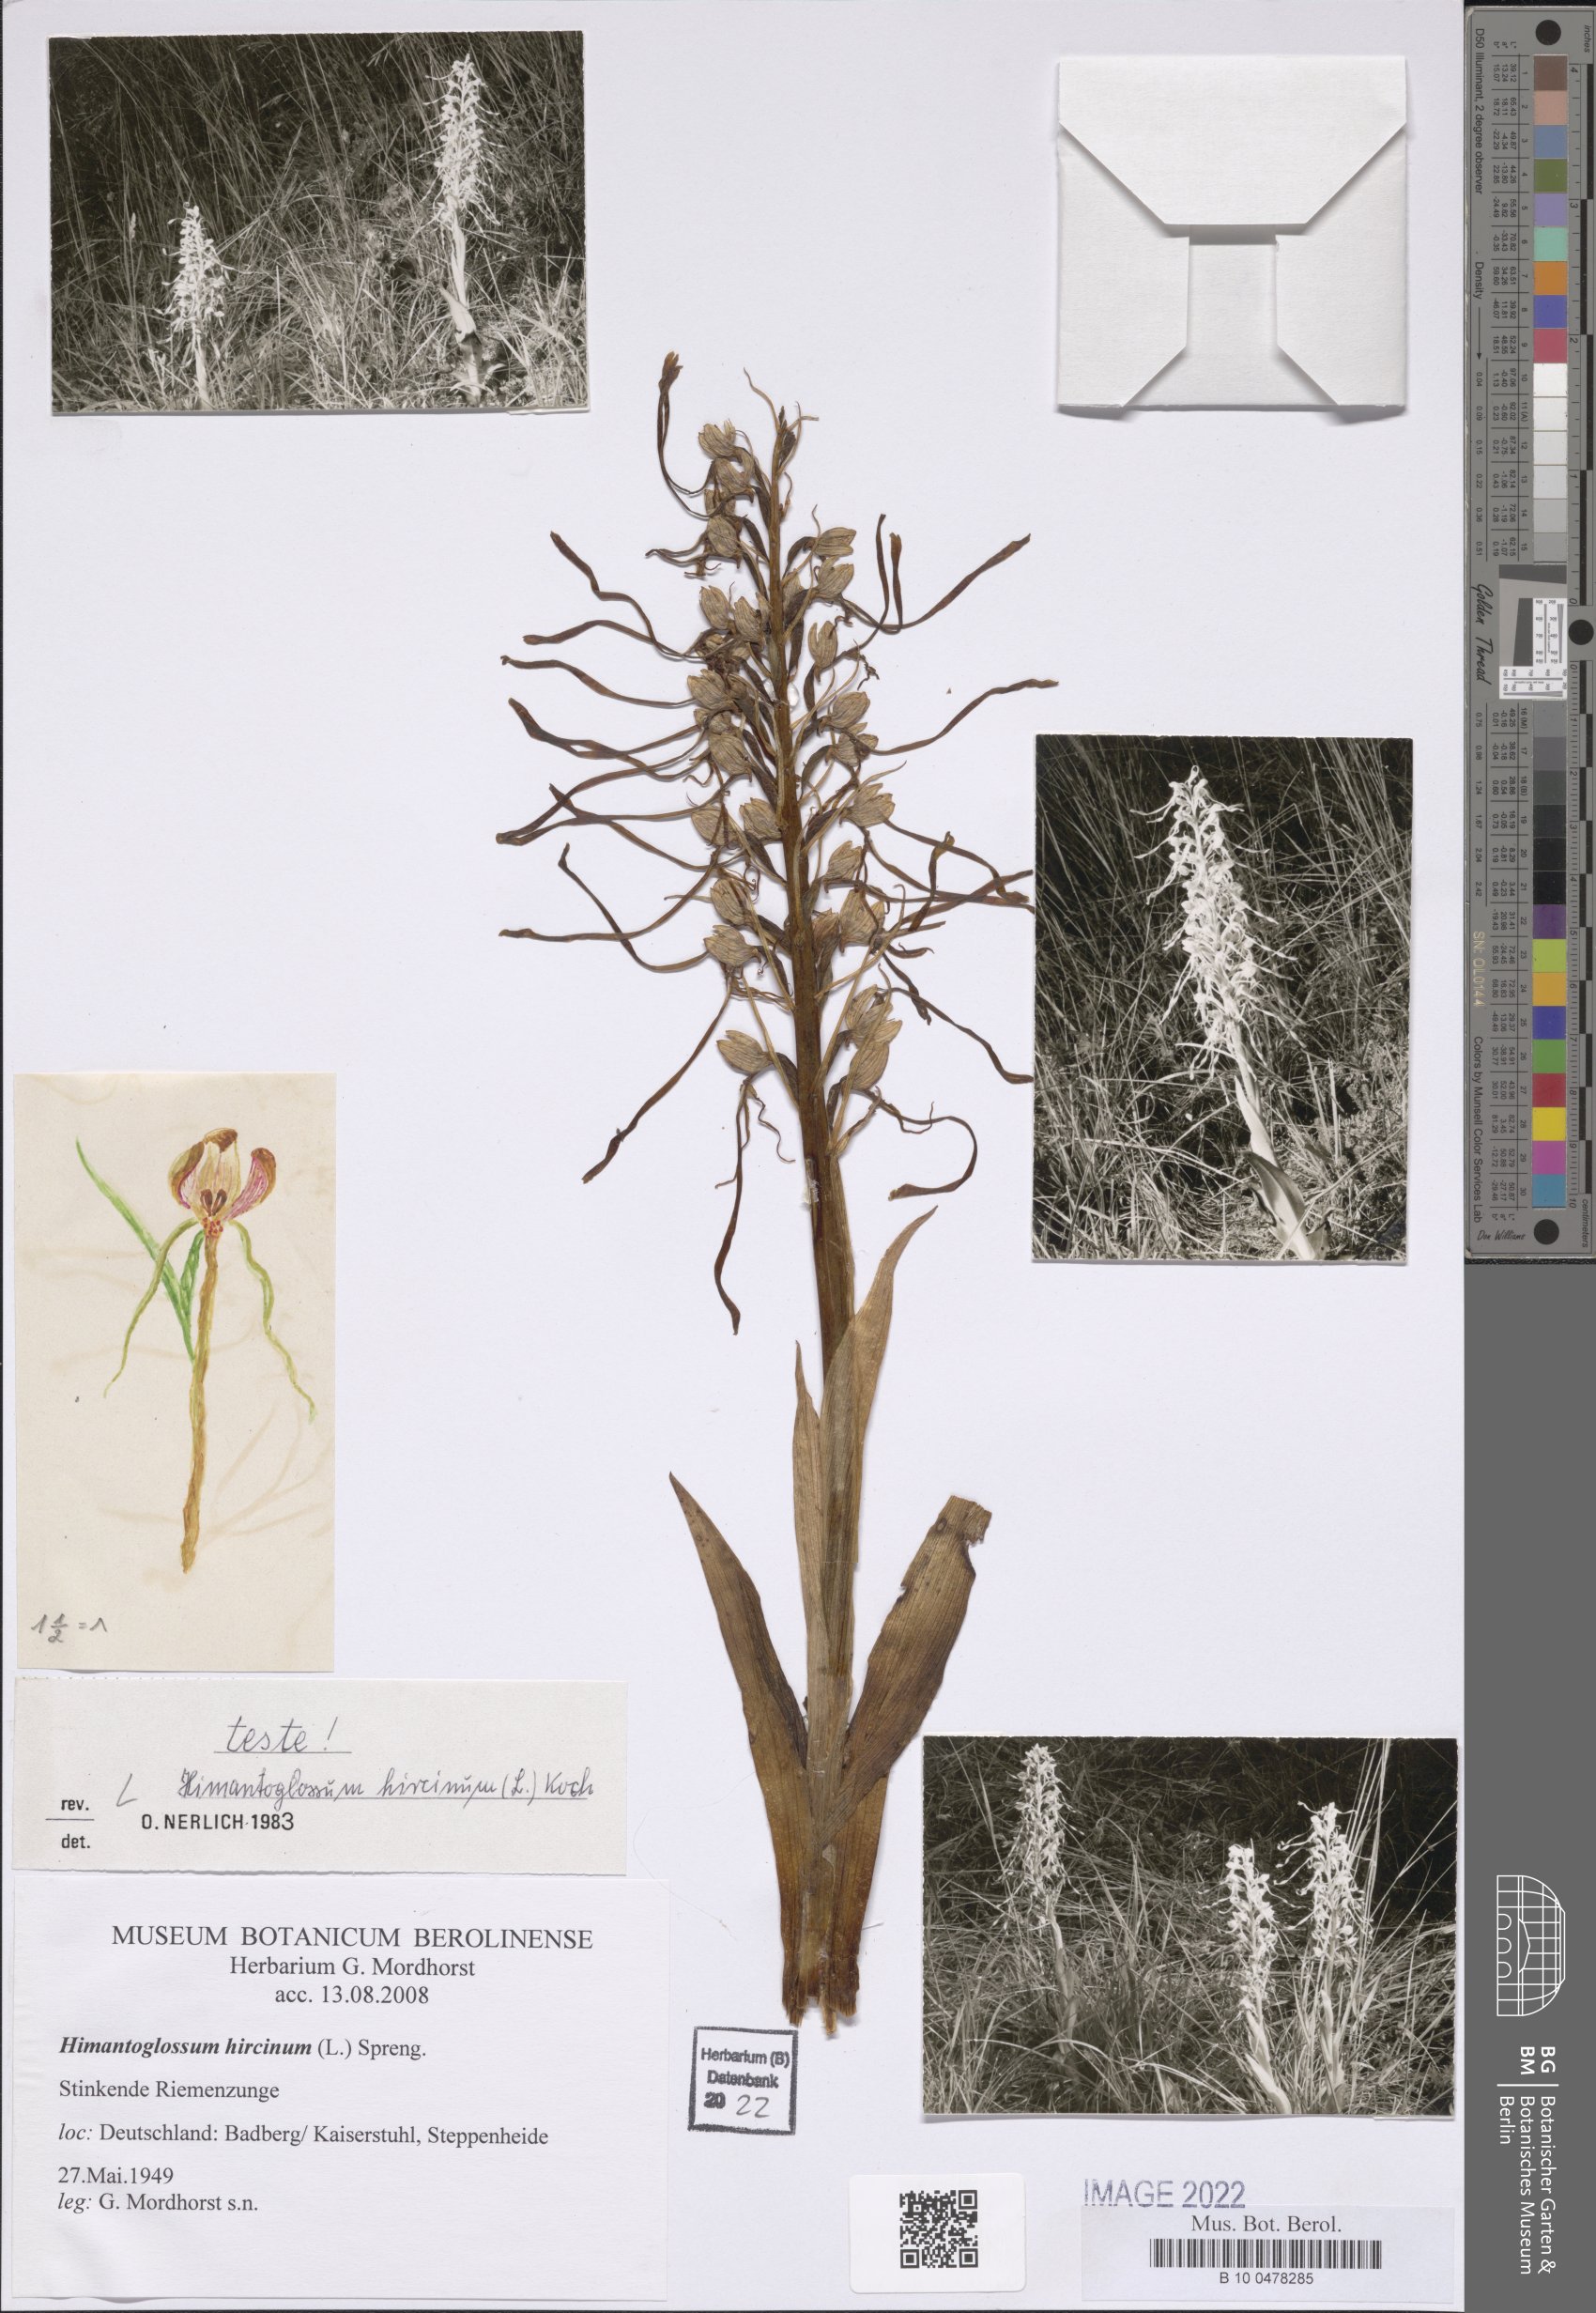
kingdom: Plantae
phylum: Tracheophyta
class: Liliopsida
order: Asparagales
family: Orchidaceae
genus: Himantoglossum
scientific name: Himantoglossum hircinum
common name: Lizard orchid
